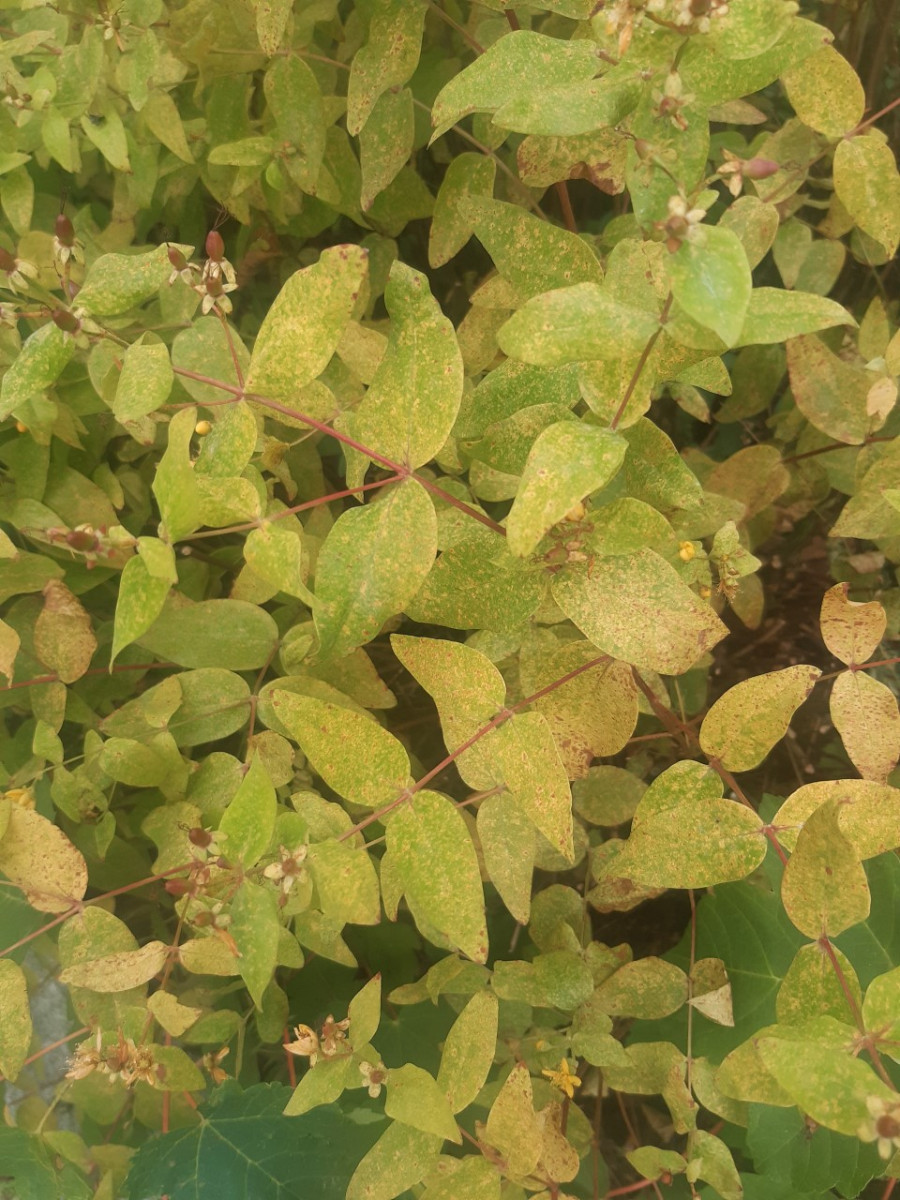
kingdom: Fungi
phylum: Basidiomycota
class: Pucciniomycetes
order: Pucciniales
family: Melampsoraceae
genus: Melampsora
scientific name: Melampsora hypericorum
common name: Tutsan rust
